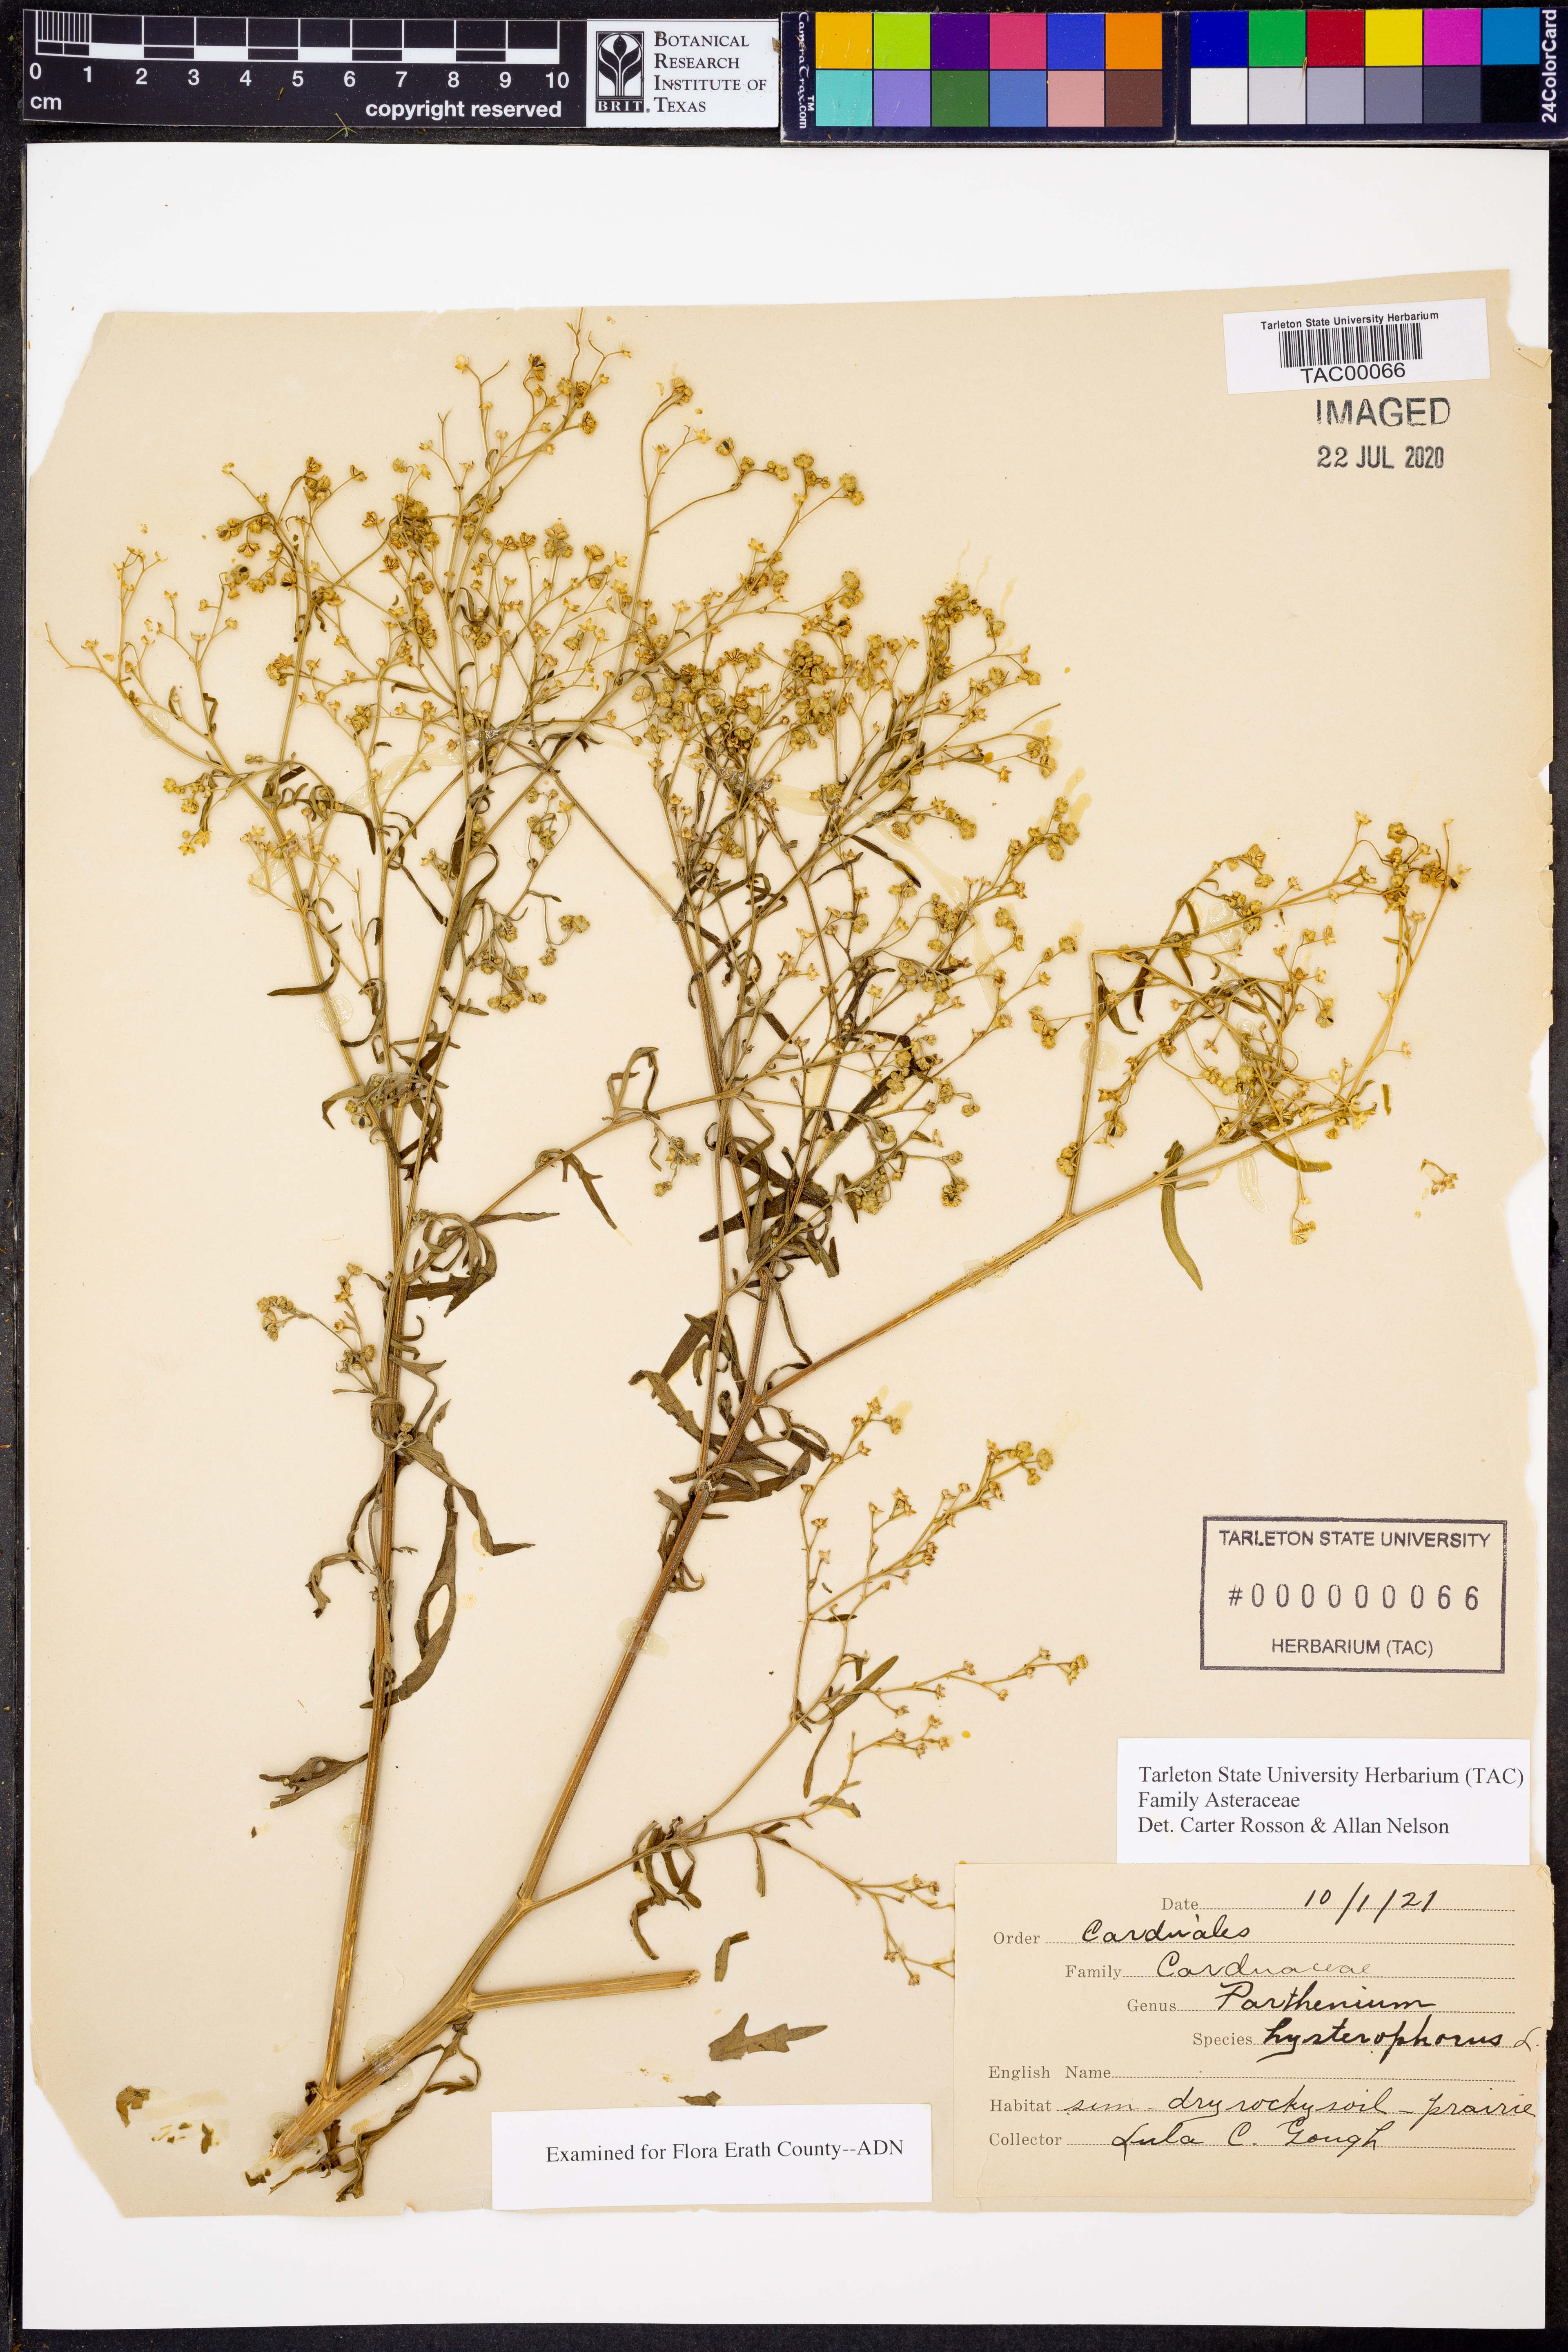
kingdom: Plantae
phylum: Tracheophyta
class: Magnoliopsida
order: Asterales
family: Asteraceae
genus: Parthenium
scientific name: Parthenium hysterophorus
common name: Santa maria feverfew
